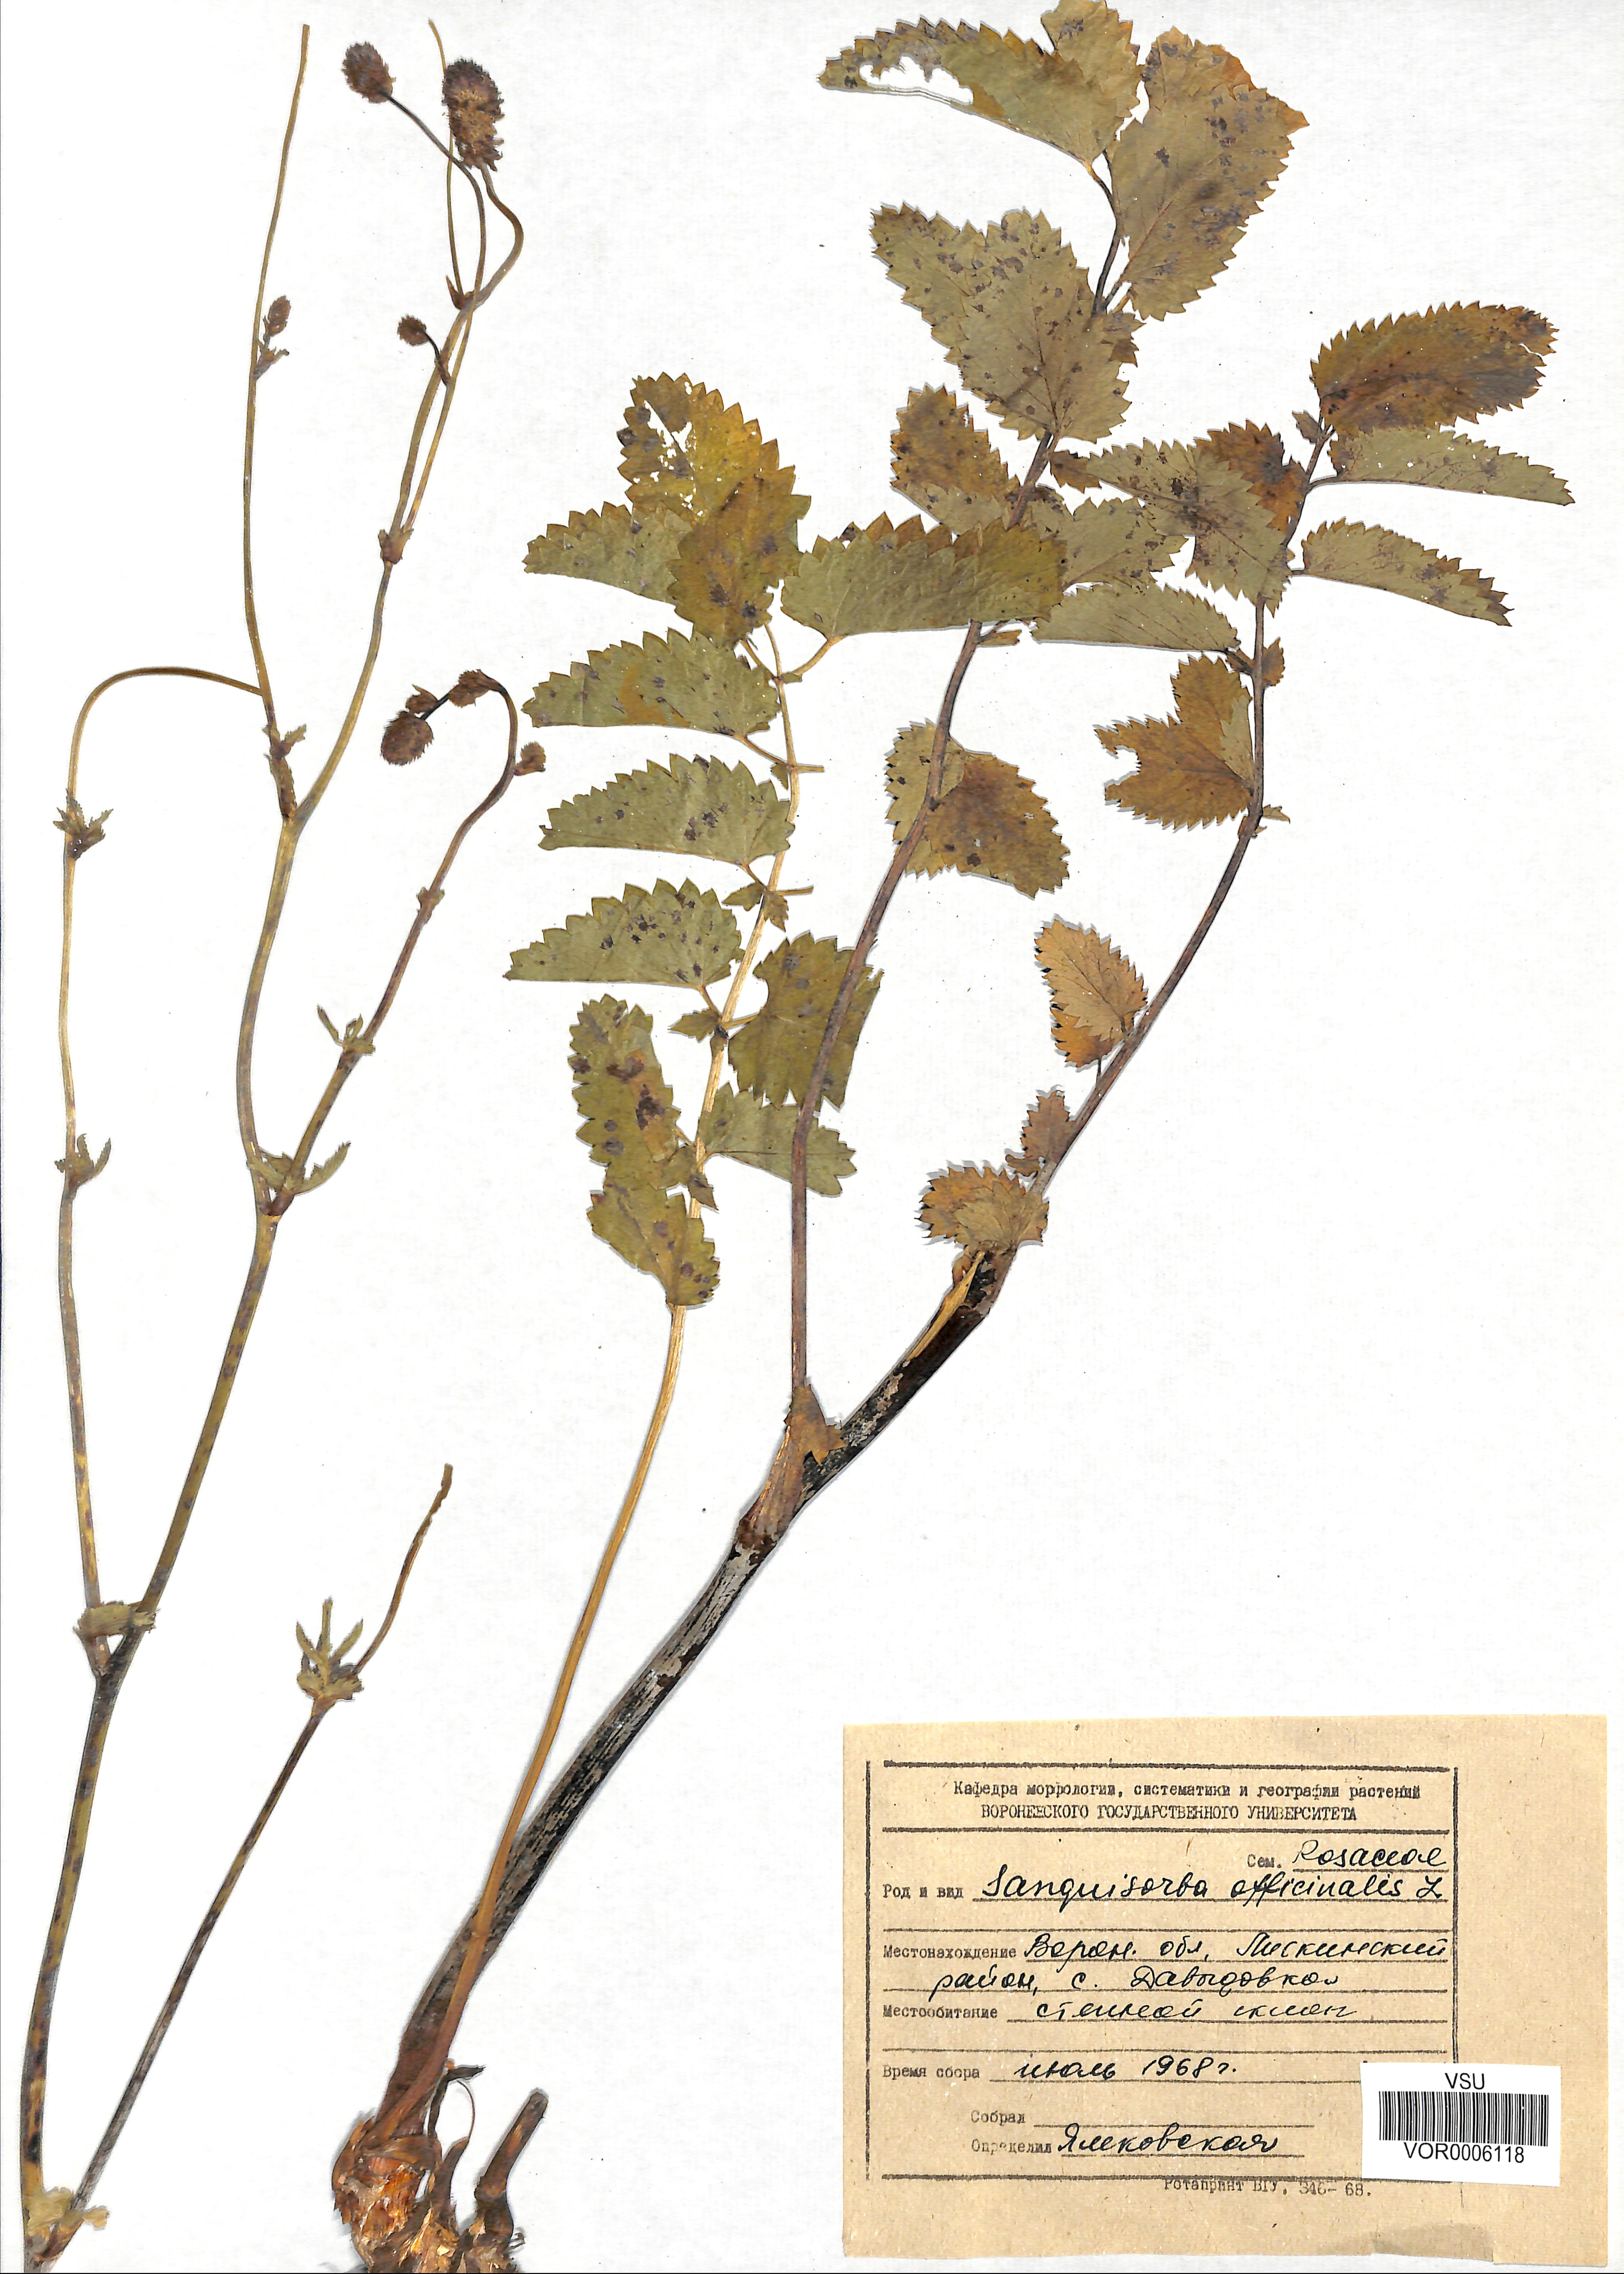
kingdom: Plantae
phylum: Tracheophyta
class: Magnoliopsida
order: Rosales
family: Rosaceae
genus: Sanguisorba
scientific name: Sanguisorba officinalis
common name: Great burnet
